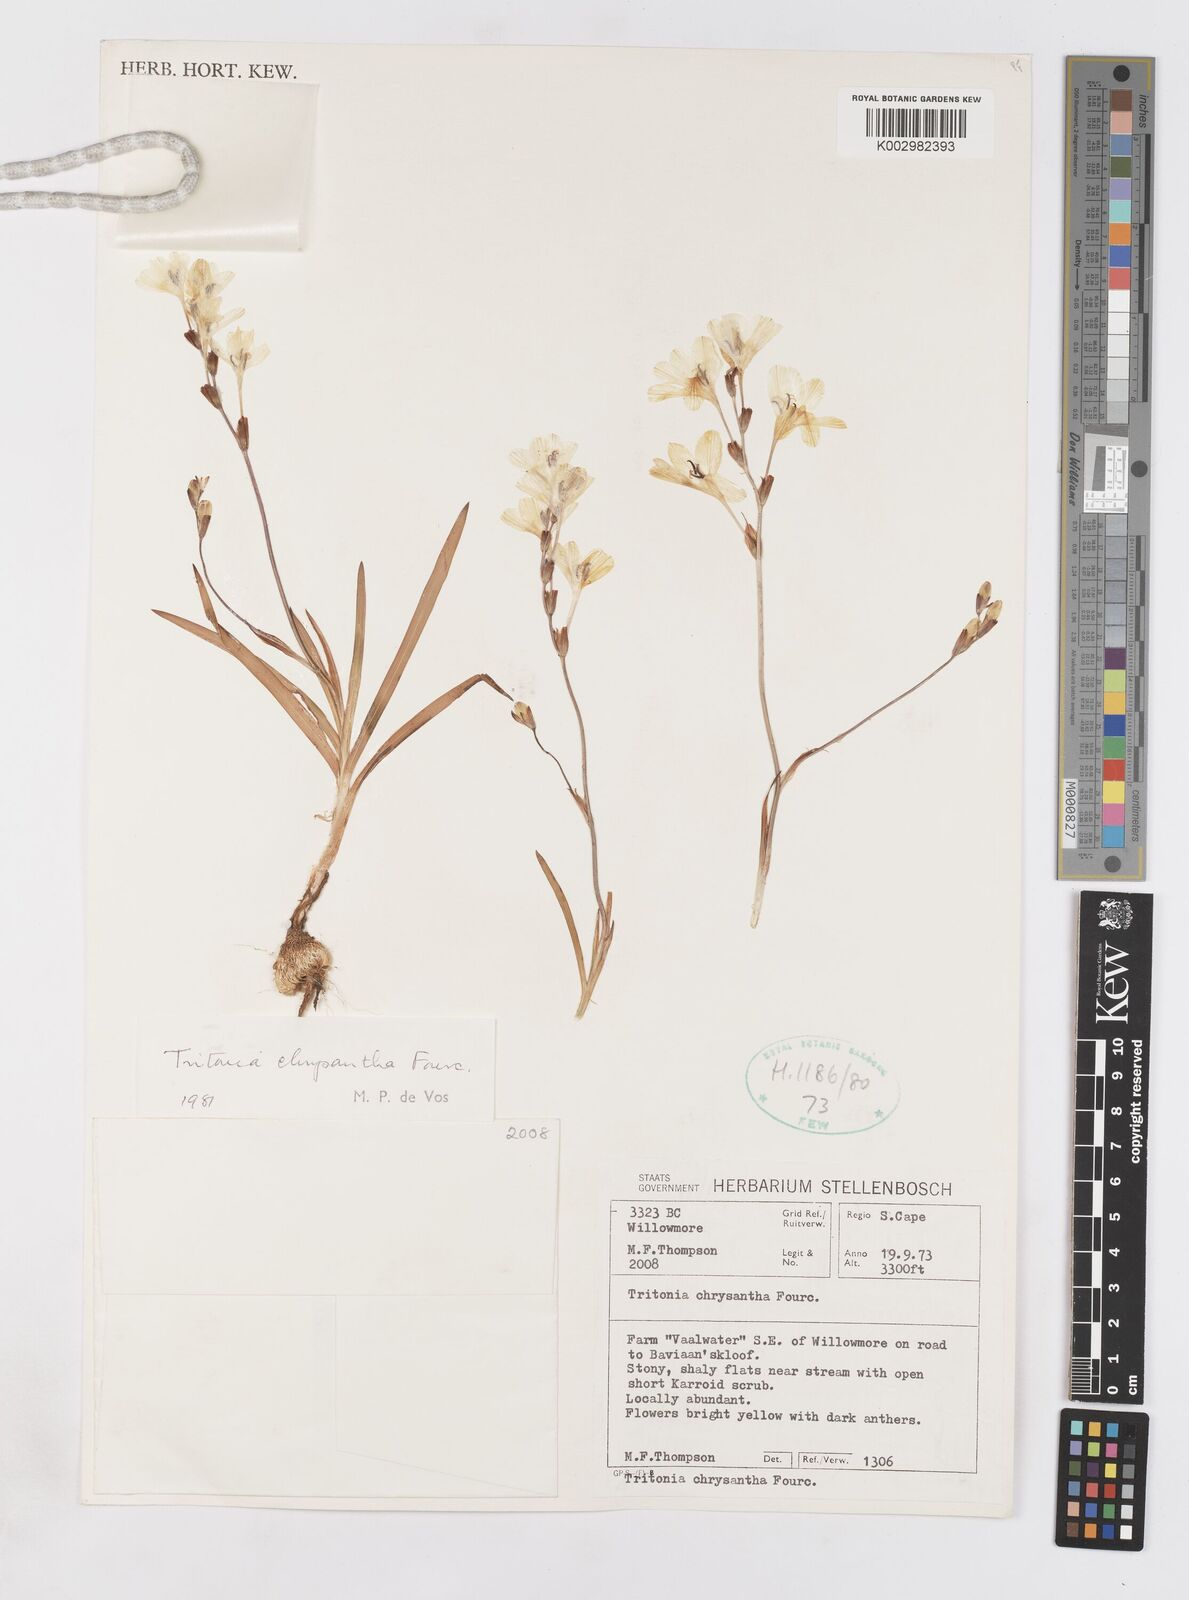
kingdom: Plantae
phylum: Tracheophyta
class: Liliopsida
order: Asparagales
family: Iridaceae
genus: Tritonia
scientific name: Tritonia chrysantha
